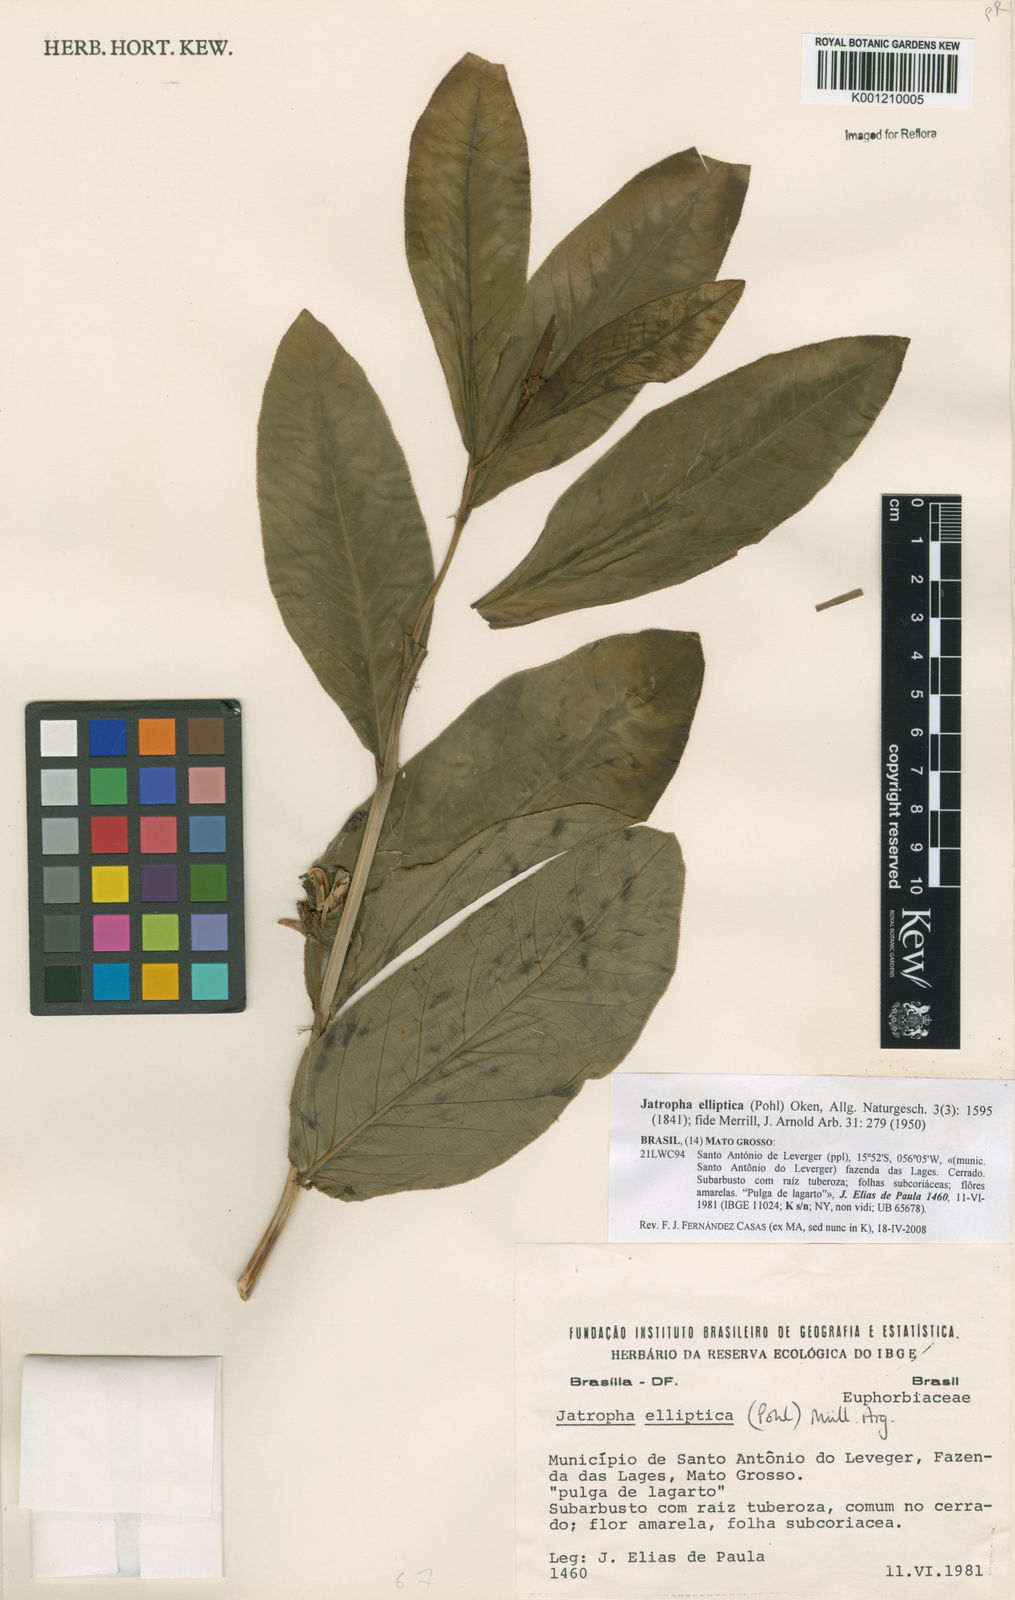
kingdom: Plantae
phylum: Tracheophyta
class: Magnoliopsida
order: Malpighiales
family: Euphorbiaceae
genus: Jatropha
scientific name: Jatropha elliptica
